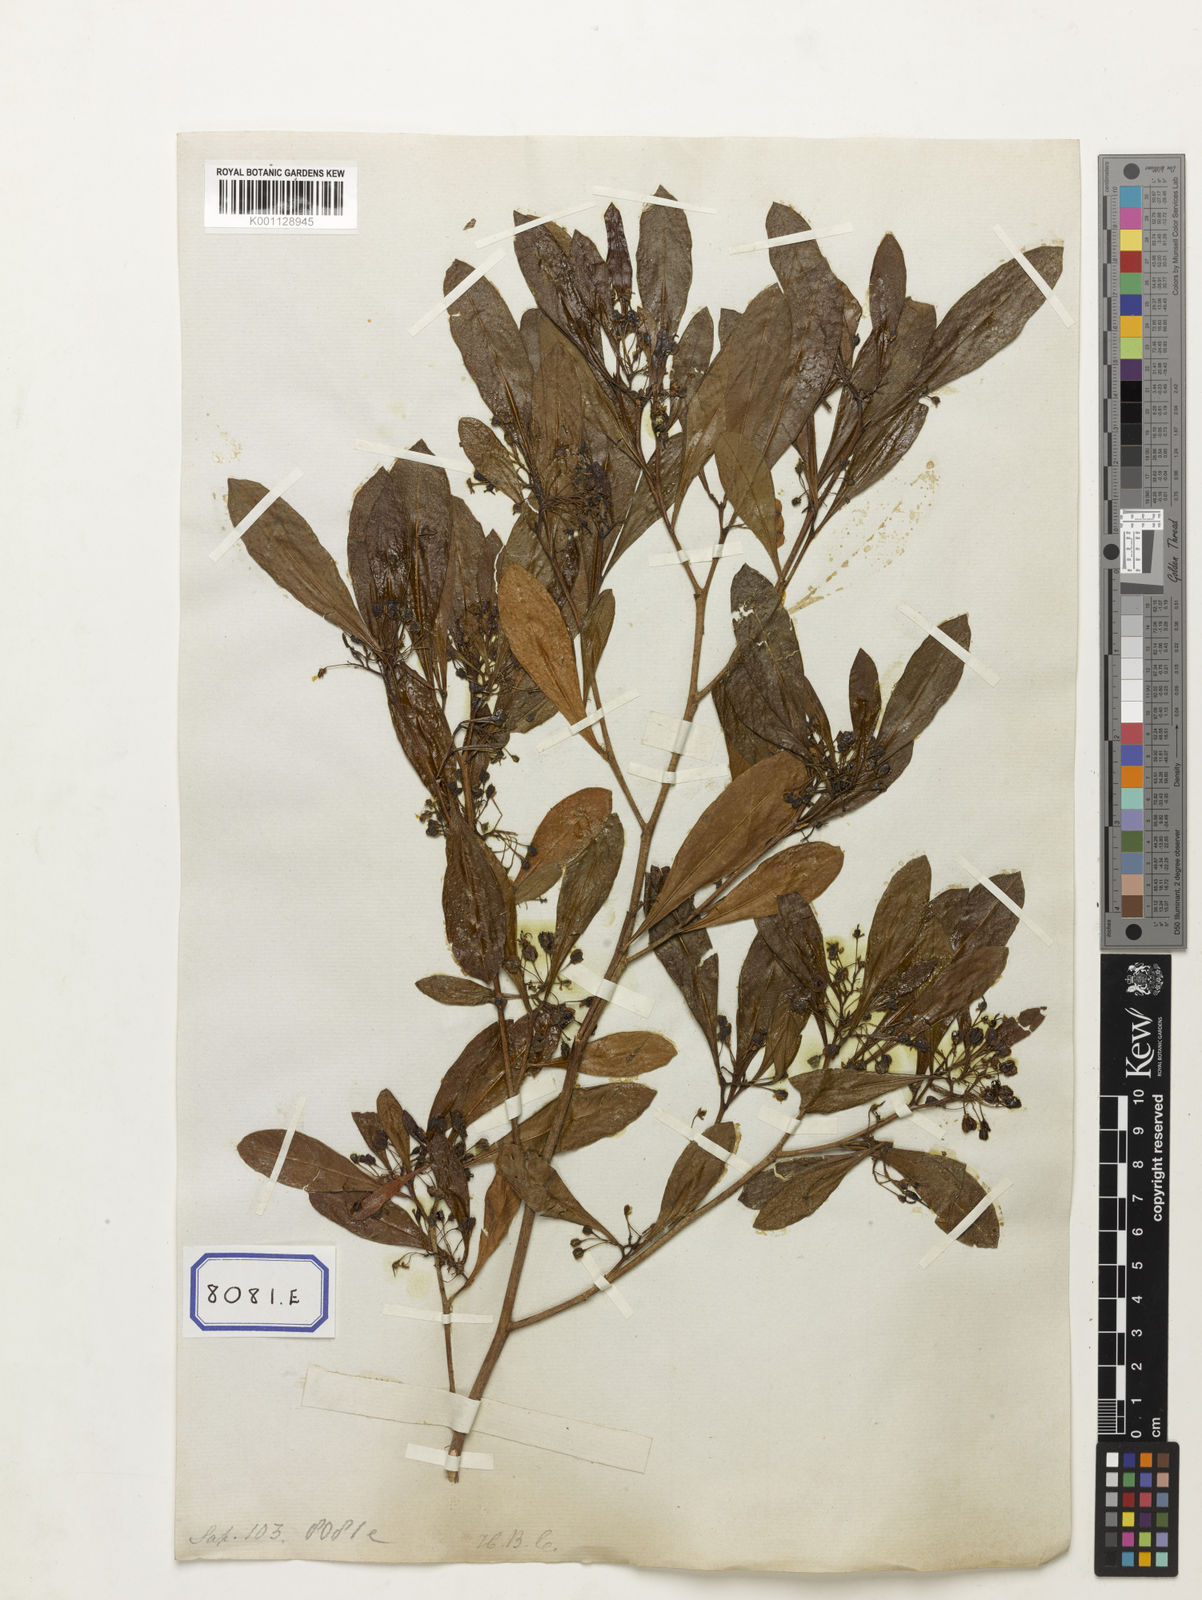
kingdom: Plantae
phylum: Tracheophyta
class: Magnoliopsida
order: Sapindales
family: Sapindaceae
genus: Dodonaea
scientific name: Dodonaea
